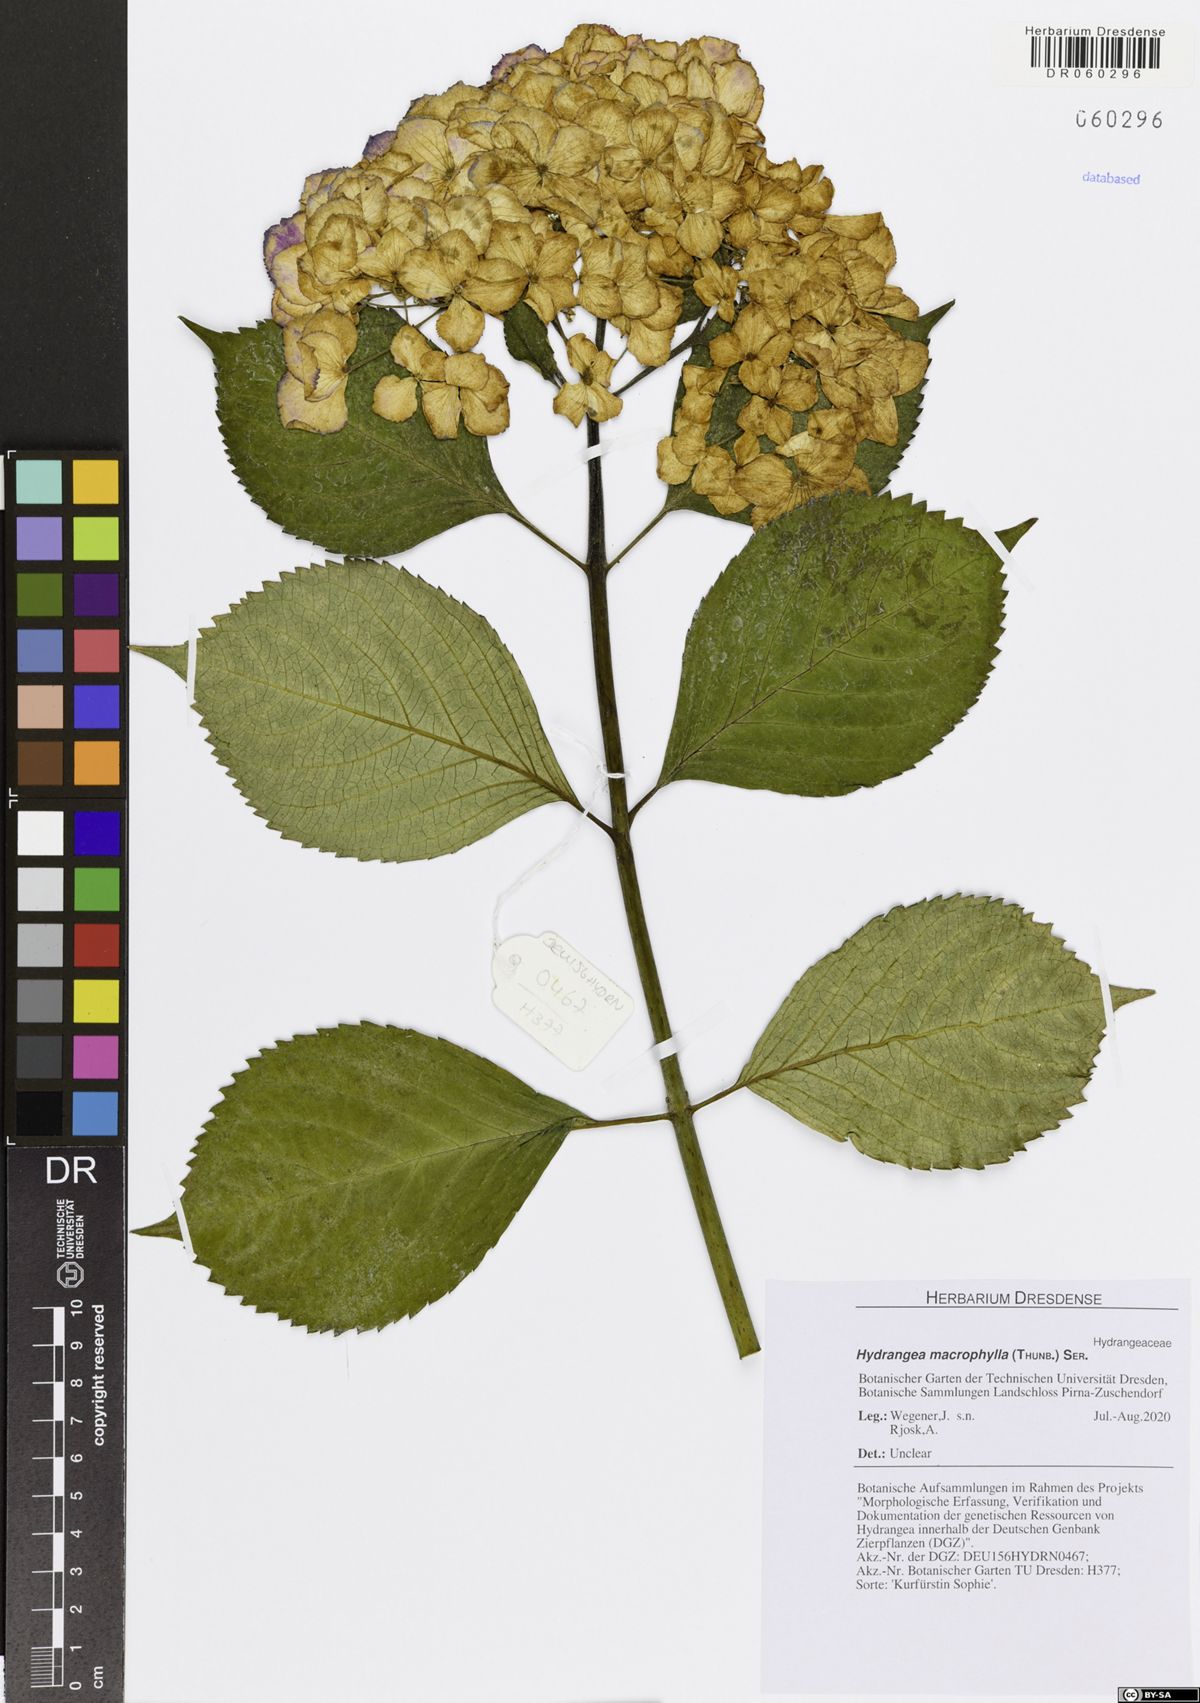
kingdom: Plantae
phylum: Tracheophyta
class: Magnoliopsida
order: Cornales
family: Hydrangeaceae
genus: Hydrangea
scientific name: Hydrangea macrophylla
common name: Hydrangea
